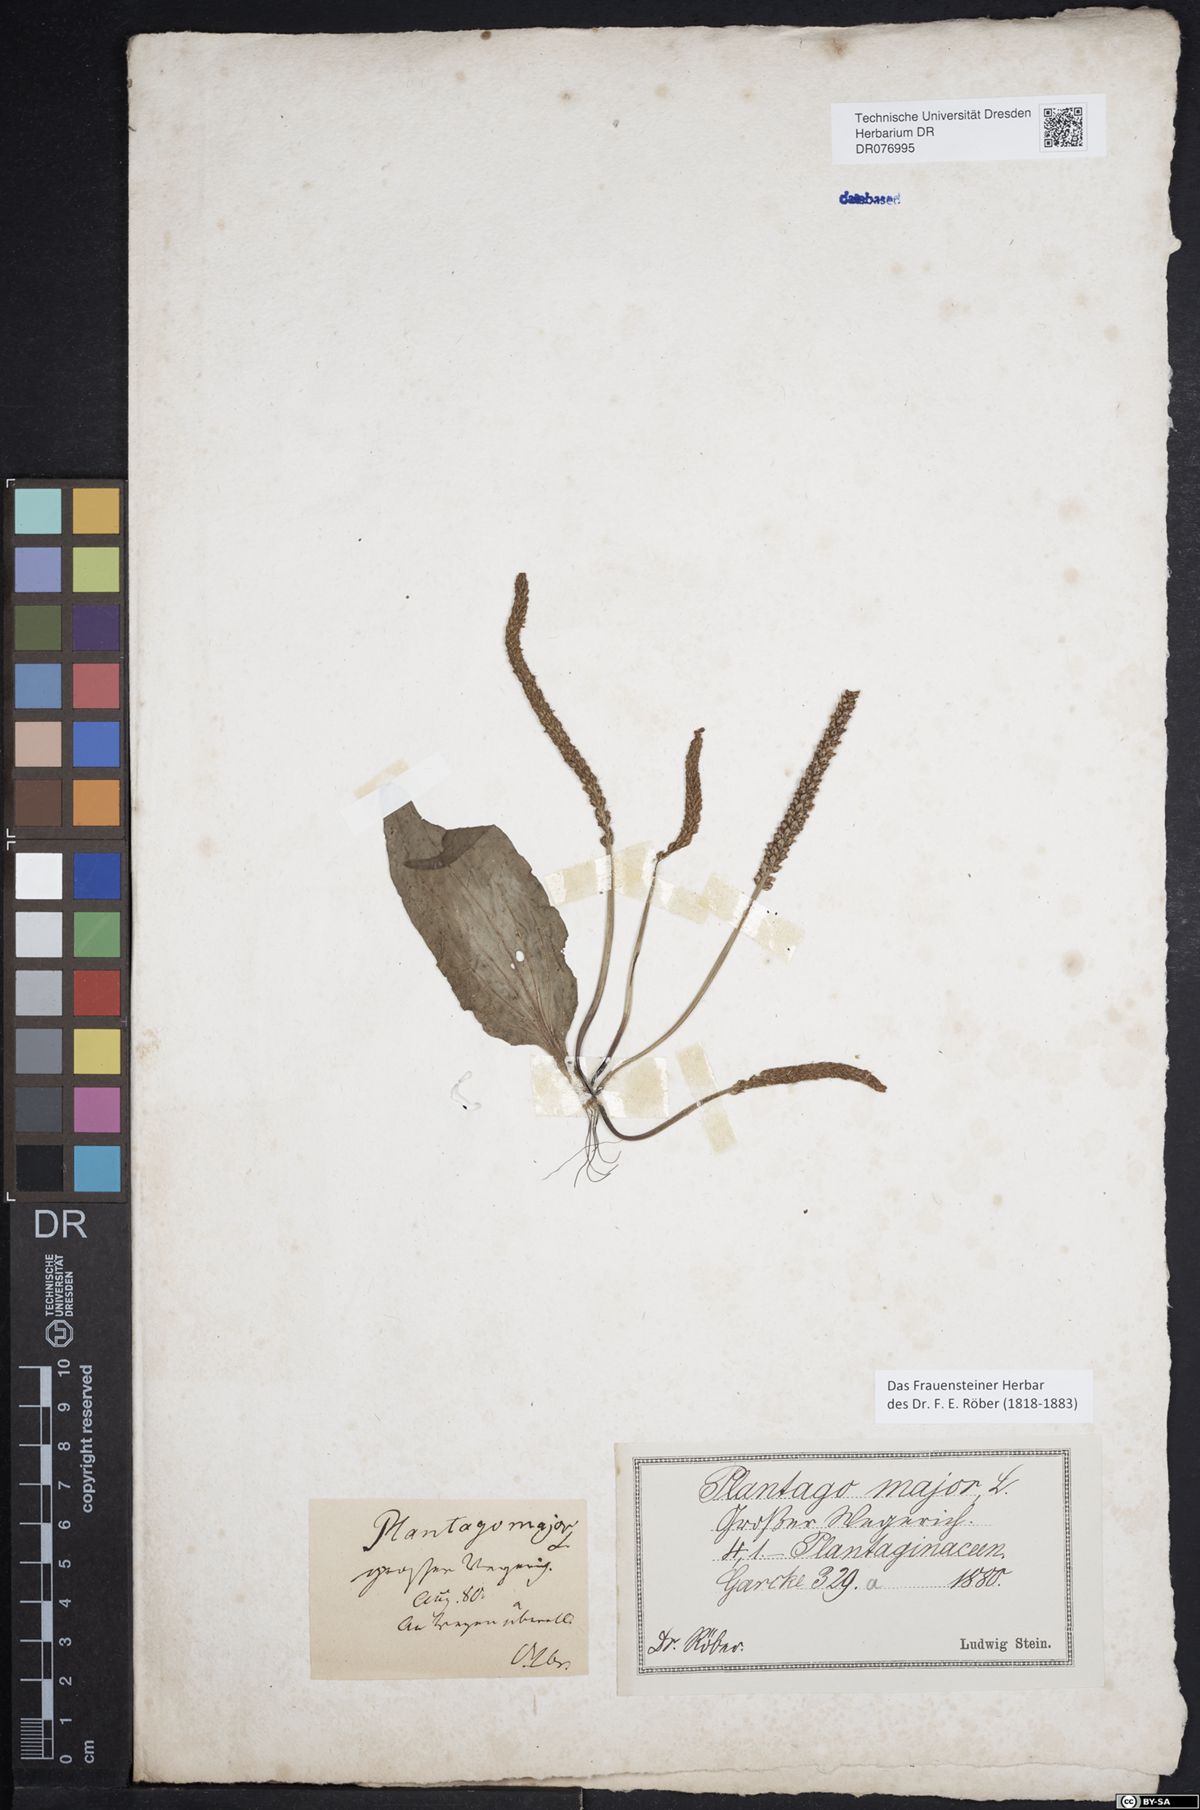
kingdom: Plantae
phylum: Tracheophyta
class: Magnoliopsida
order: Lamiales
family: Plantaginaceae
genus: Plantago
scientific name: Plantago major
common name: Common plantain
